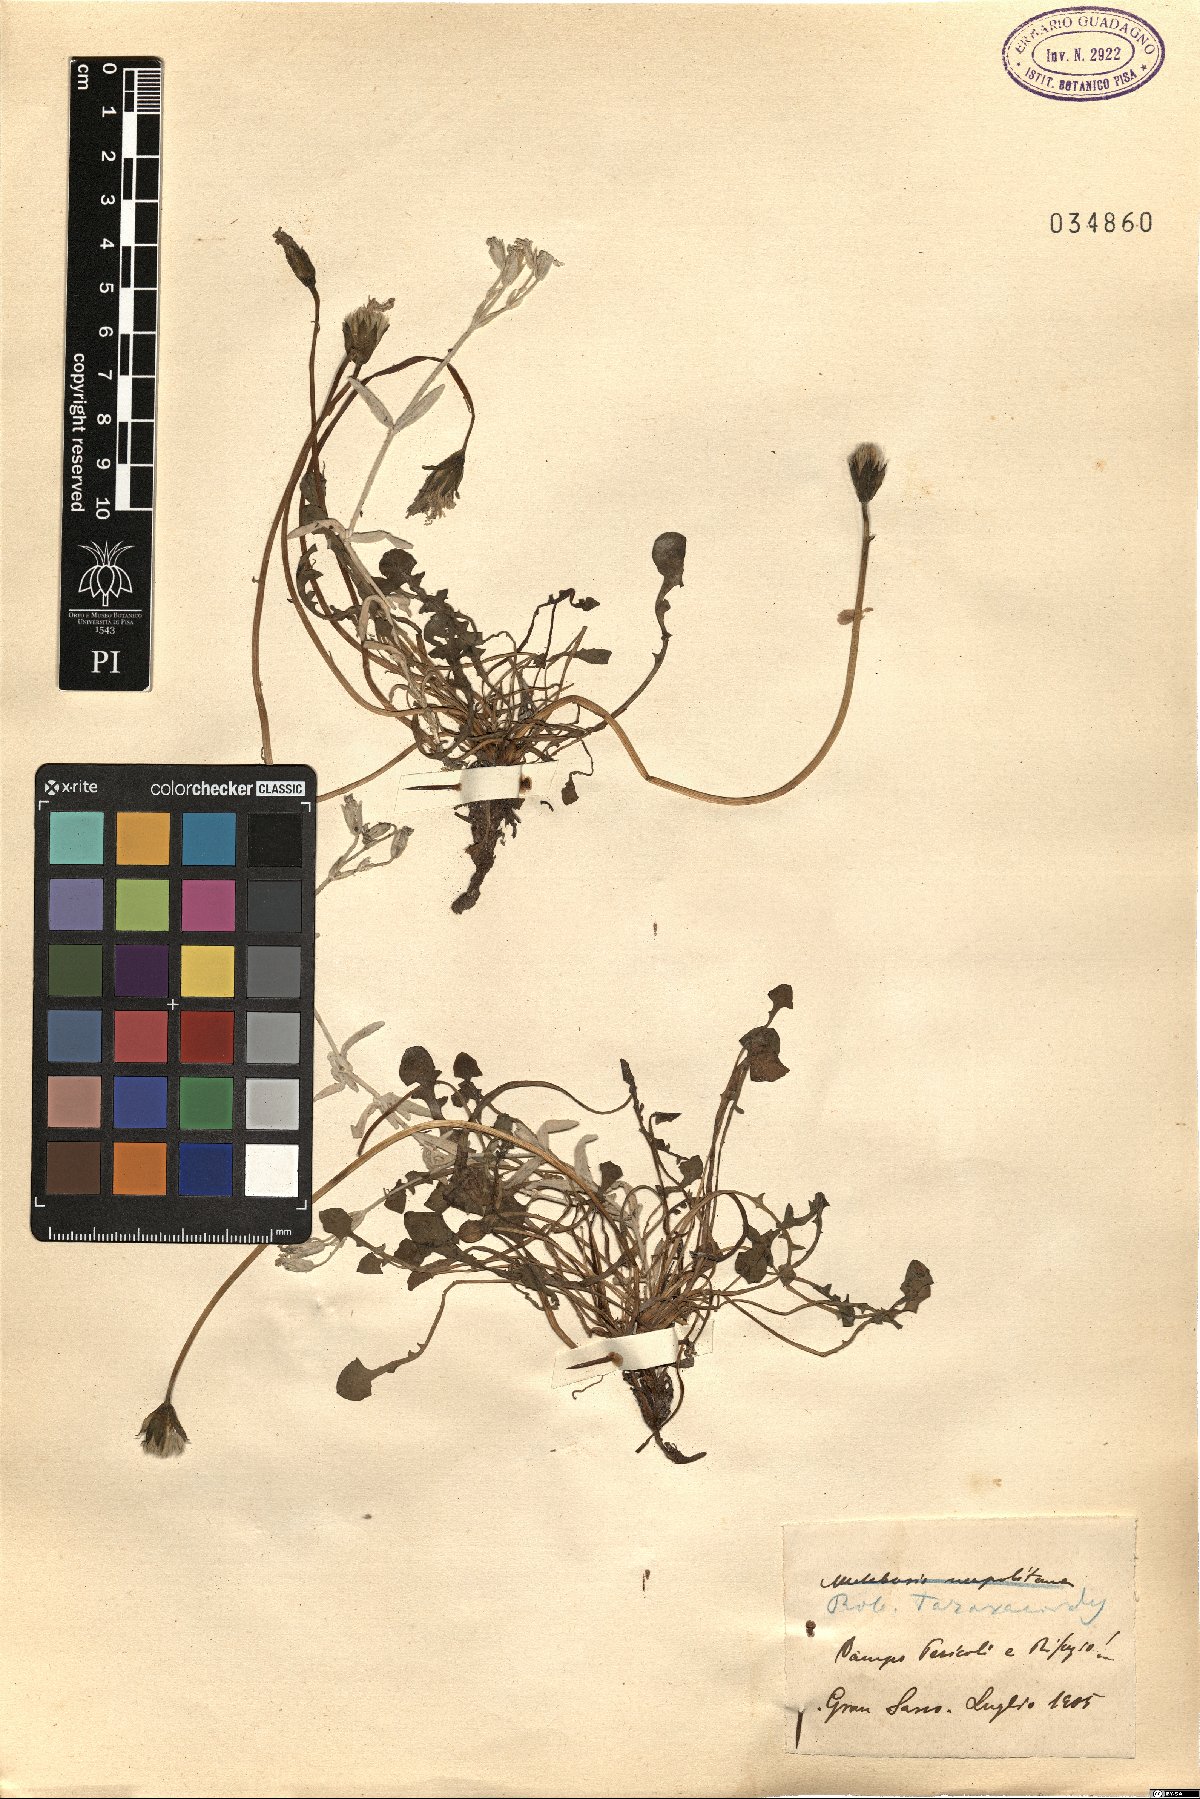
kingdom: Plantae
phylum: Tracheophyta
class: Magnoliopsida
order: Asterales
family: Asteraceae
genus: Hypochaeris
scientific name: Hypochaeris robertia
